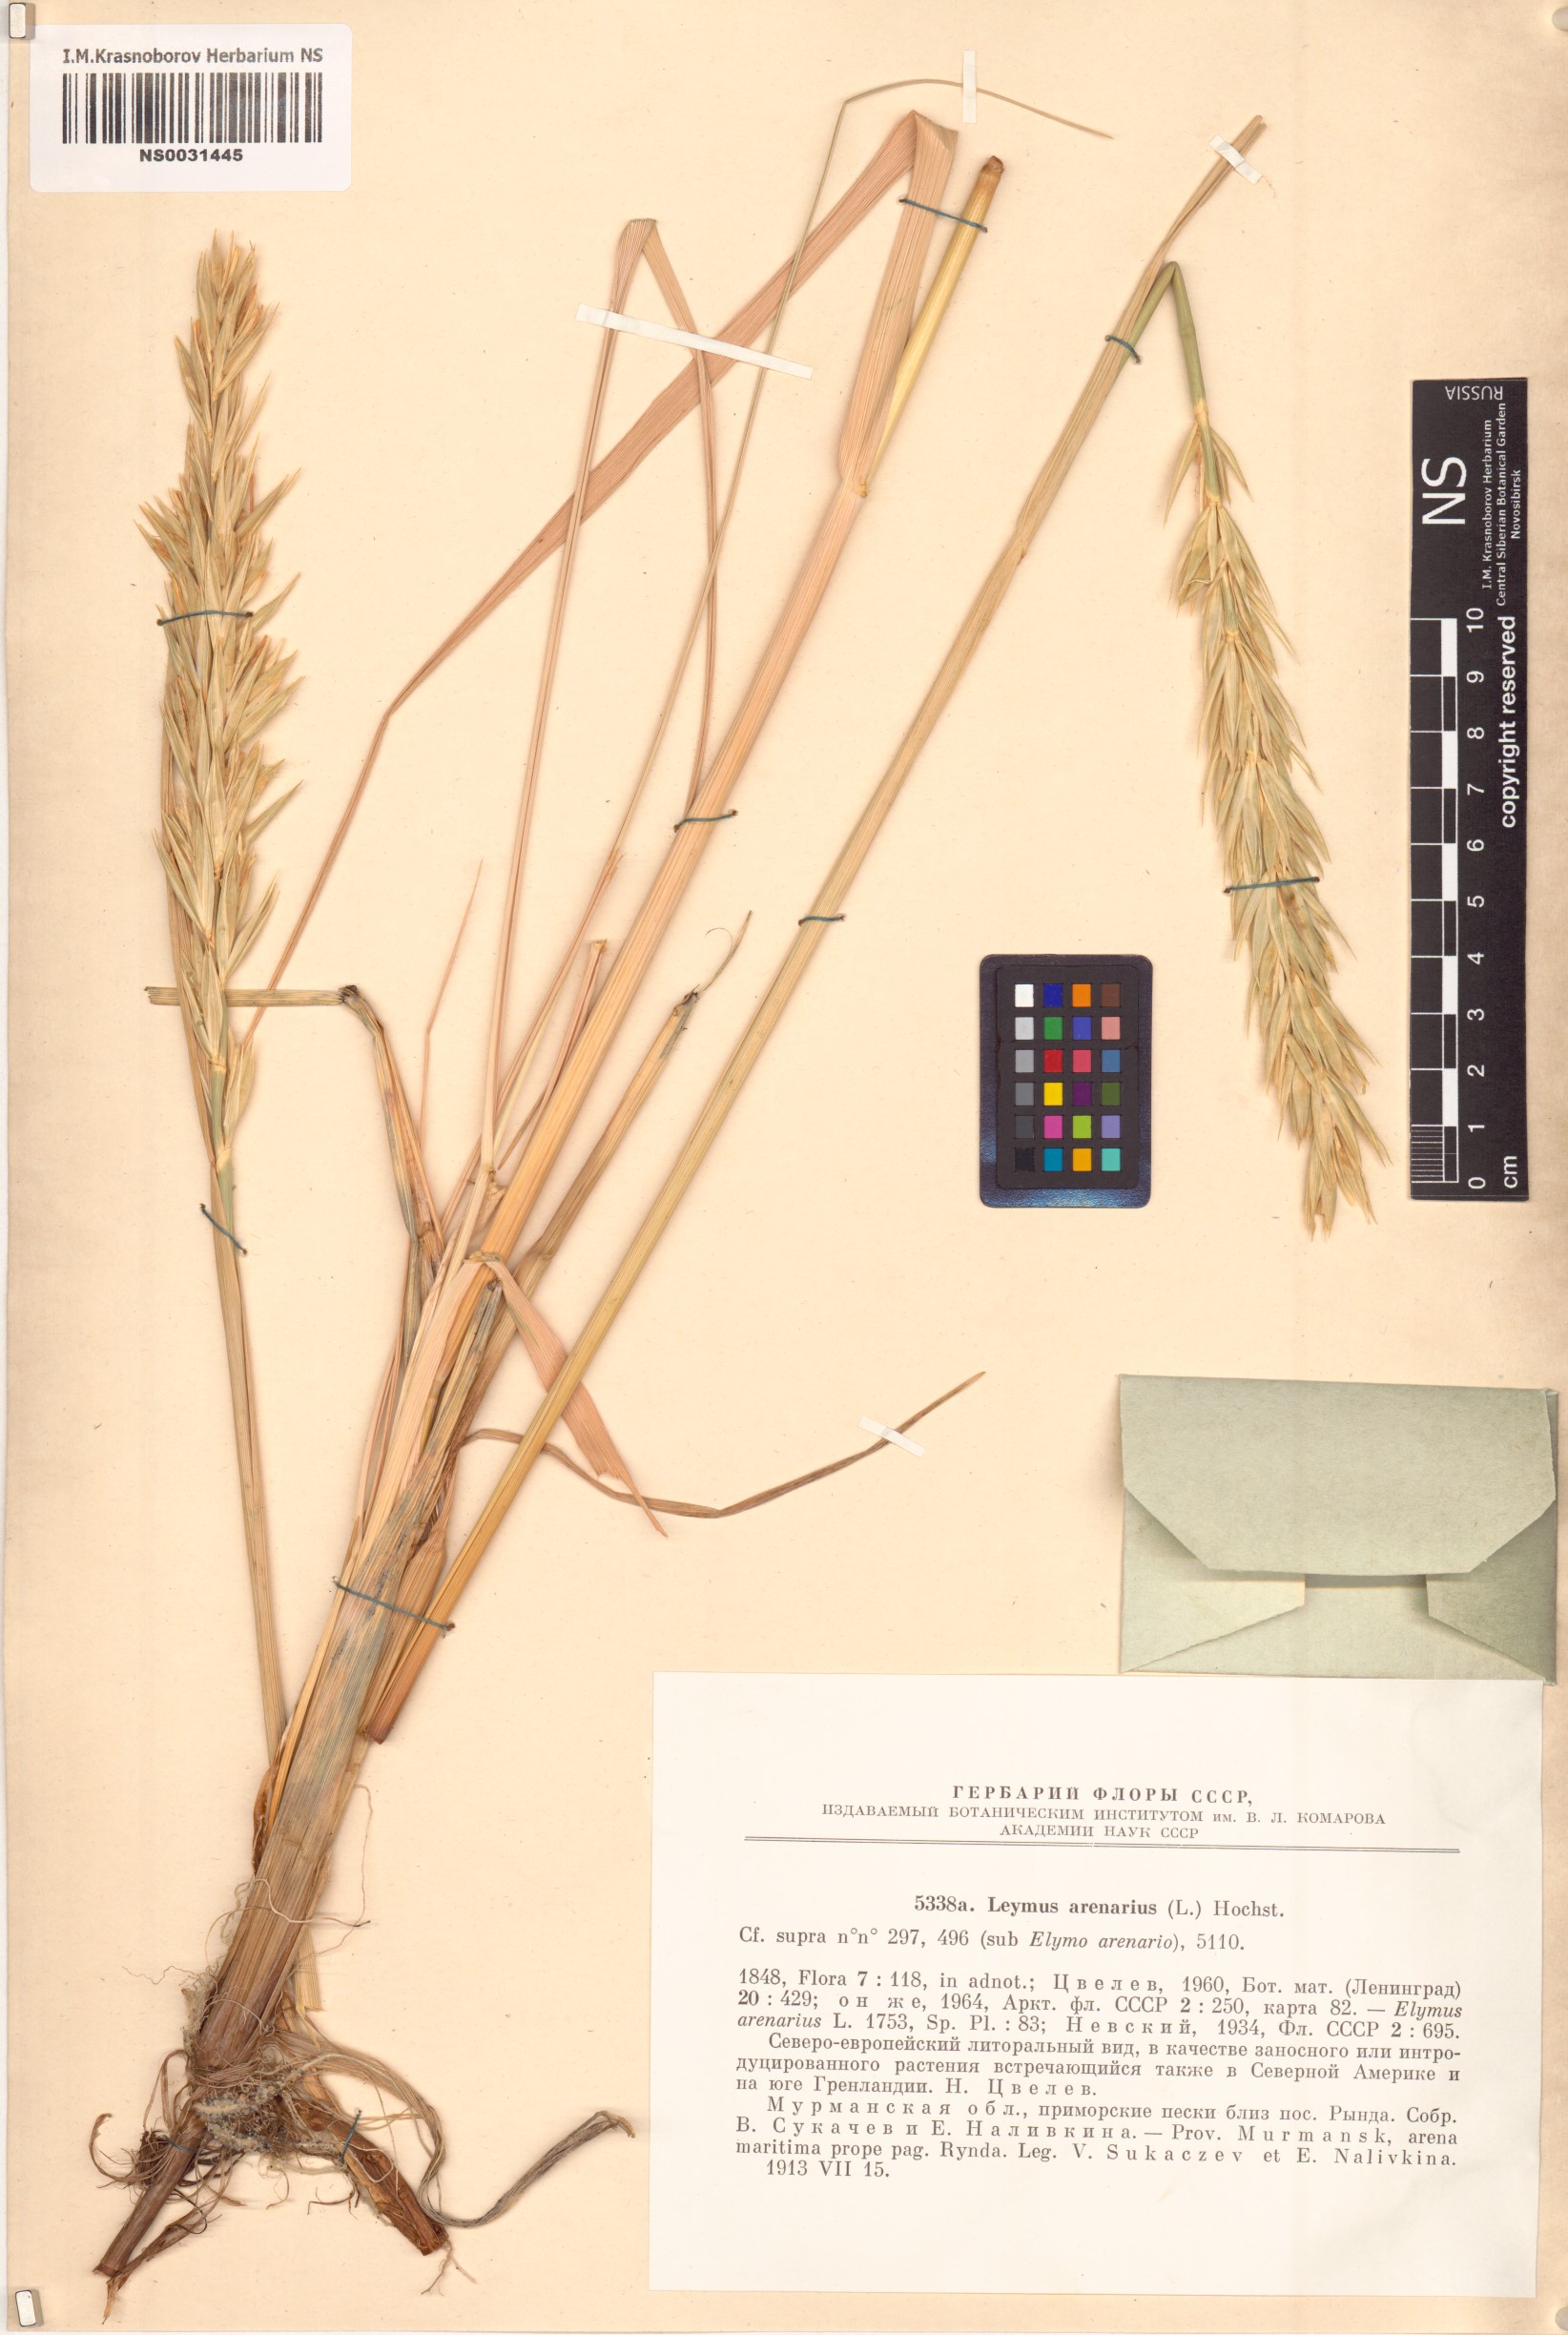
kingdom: Plantae
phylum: Tracheophyta
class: Liliopsida
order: Poales
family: Poaceae
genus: Leymus
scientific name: Leymus arenarius
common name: Lyme-grass
